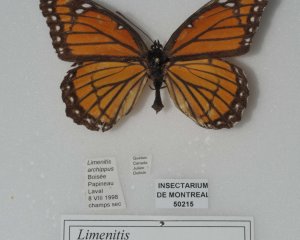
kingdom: Animalia
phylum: Arthropoda
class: Insecta
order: Lepidoptera
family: Nymphalidae
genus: Limenitis
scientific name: Limenitis archippus
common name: Viceroy
